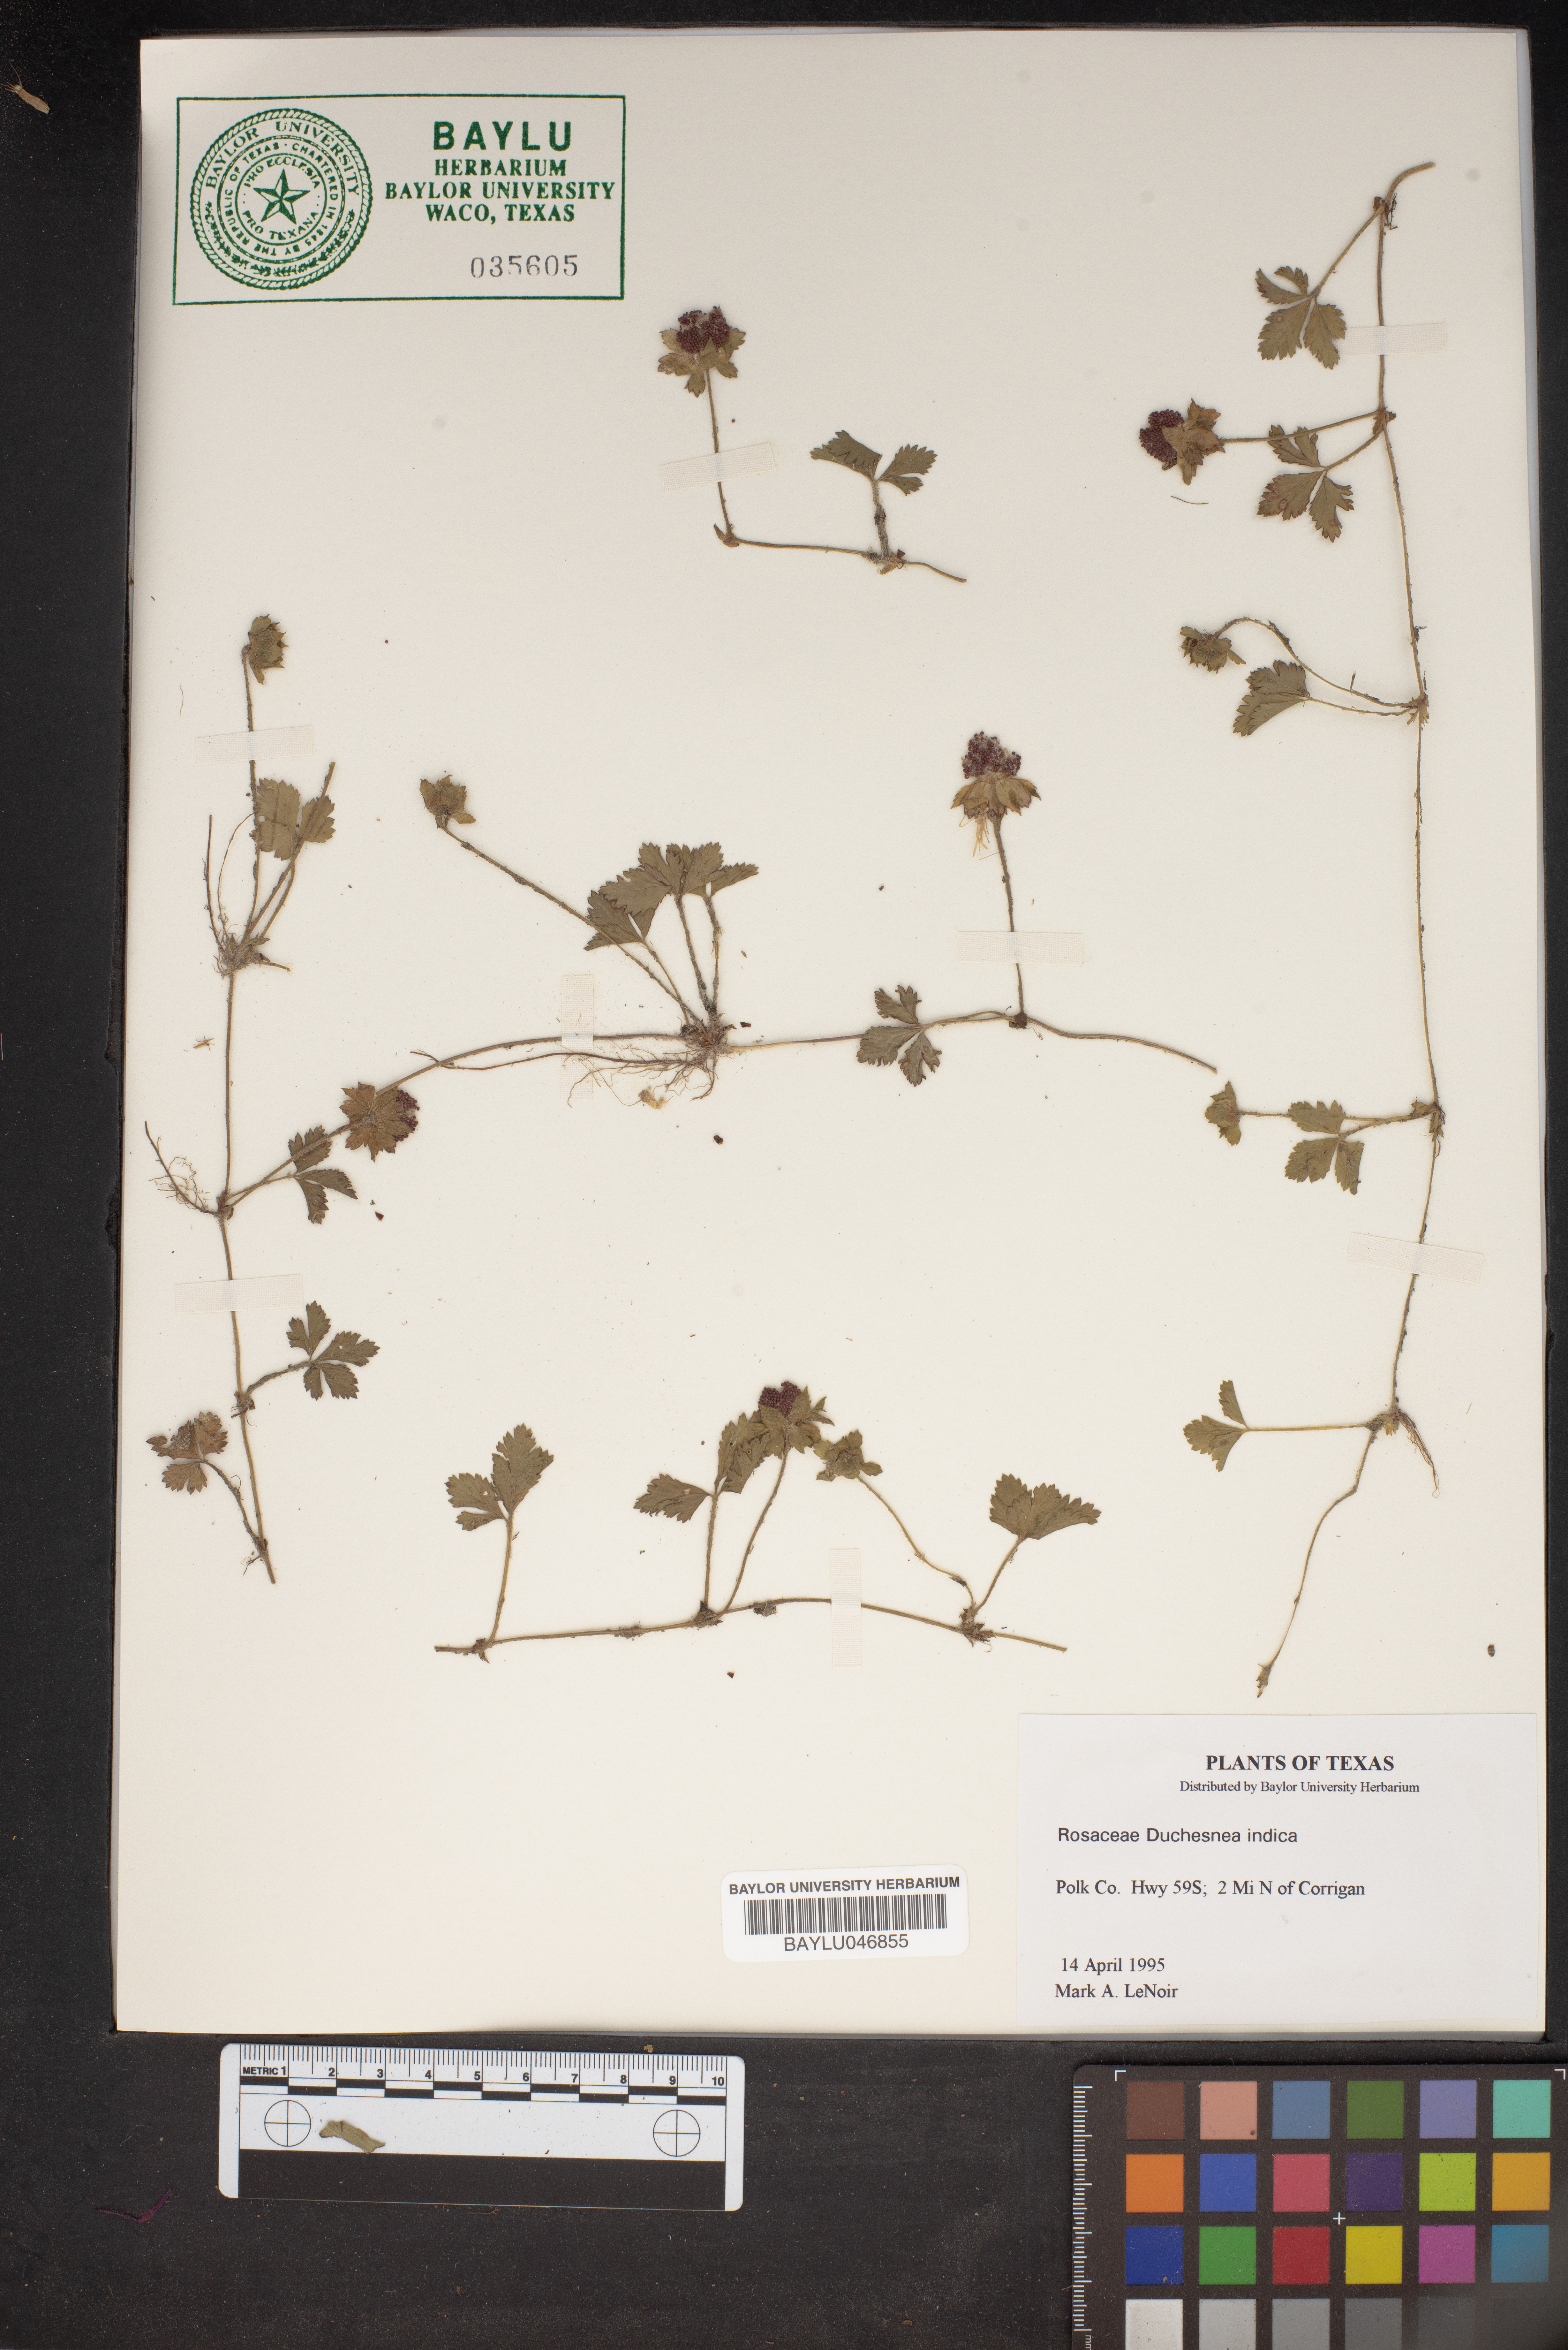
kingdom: Plantae
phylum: Tracheophyta
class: Magnoliopsida
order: Rosales
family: Rosaceae
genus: Potentilla
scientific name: Potentilla indica
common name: Yellow-flowered strawberry
